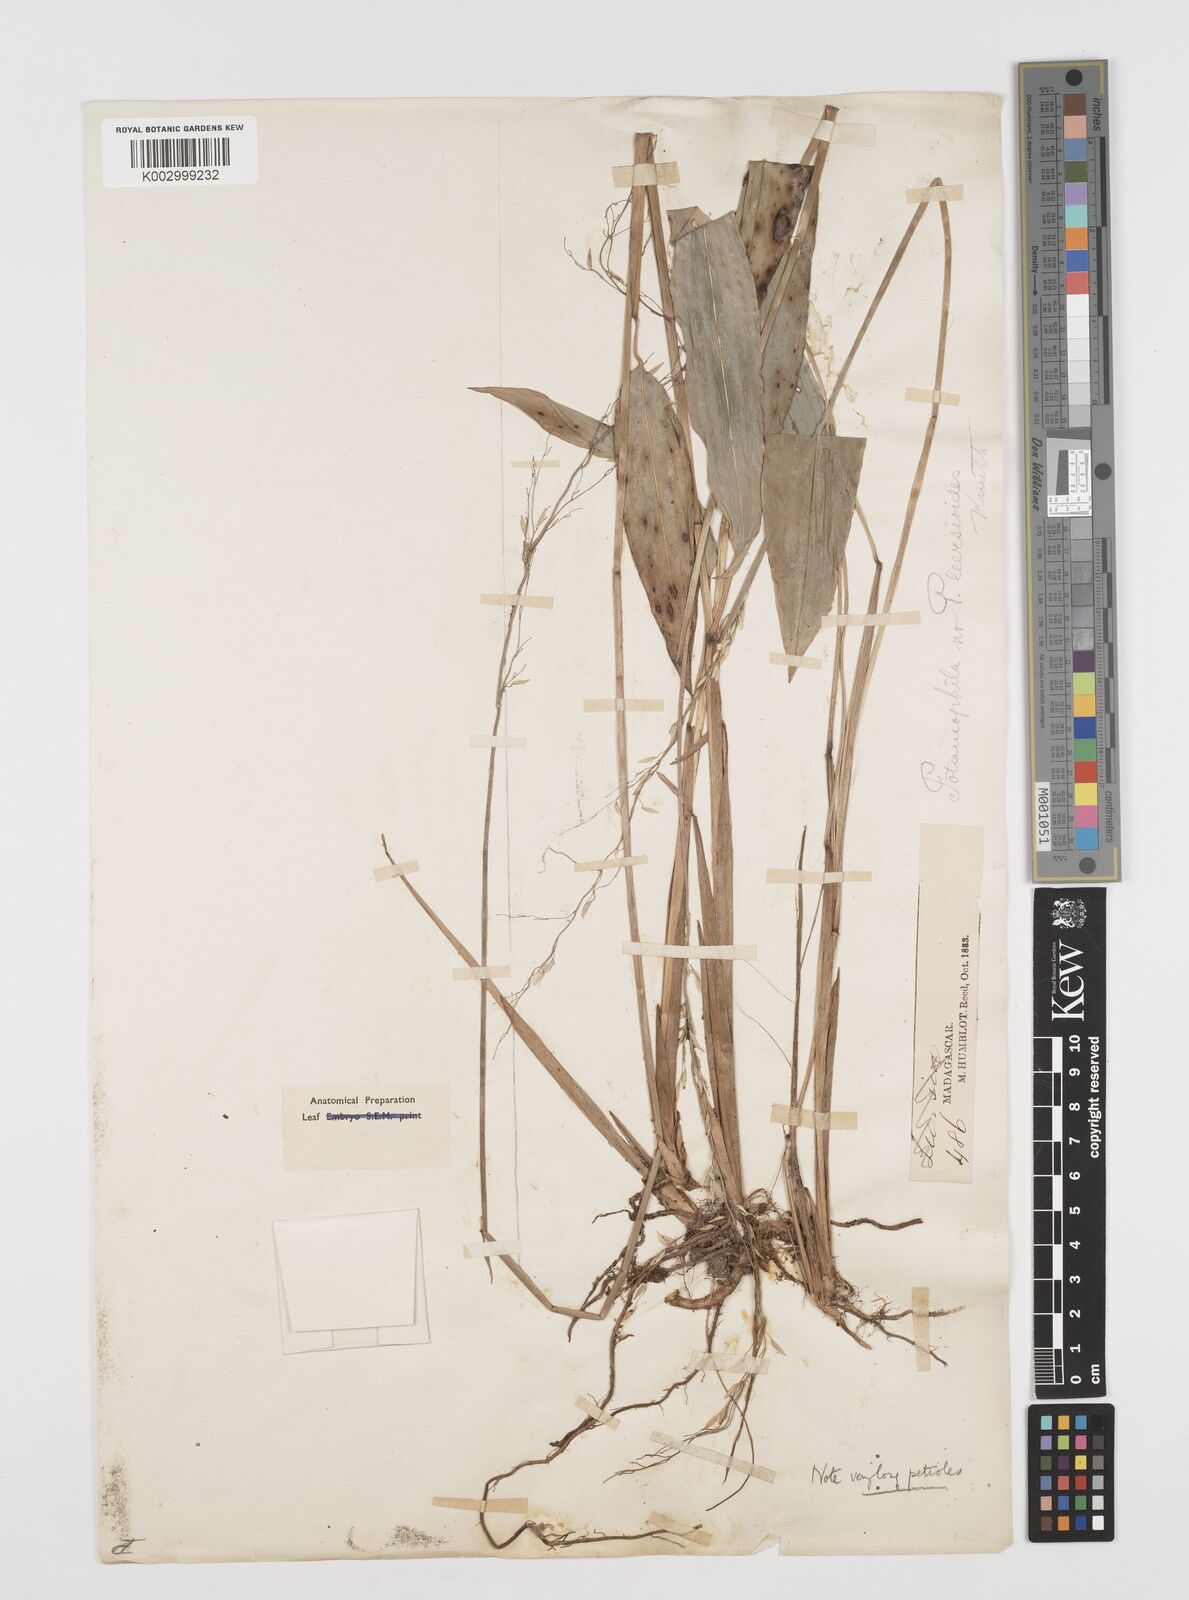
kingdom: Plantae
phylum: Tracheophyta
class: Liliopsida
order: Poales
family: Poaceae
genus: Maltebrunia
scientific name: Maltebrunia leersioides
